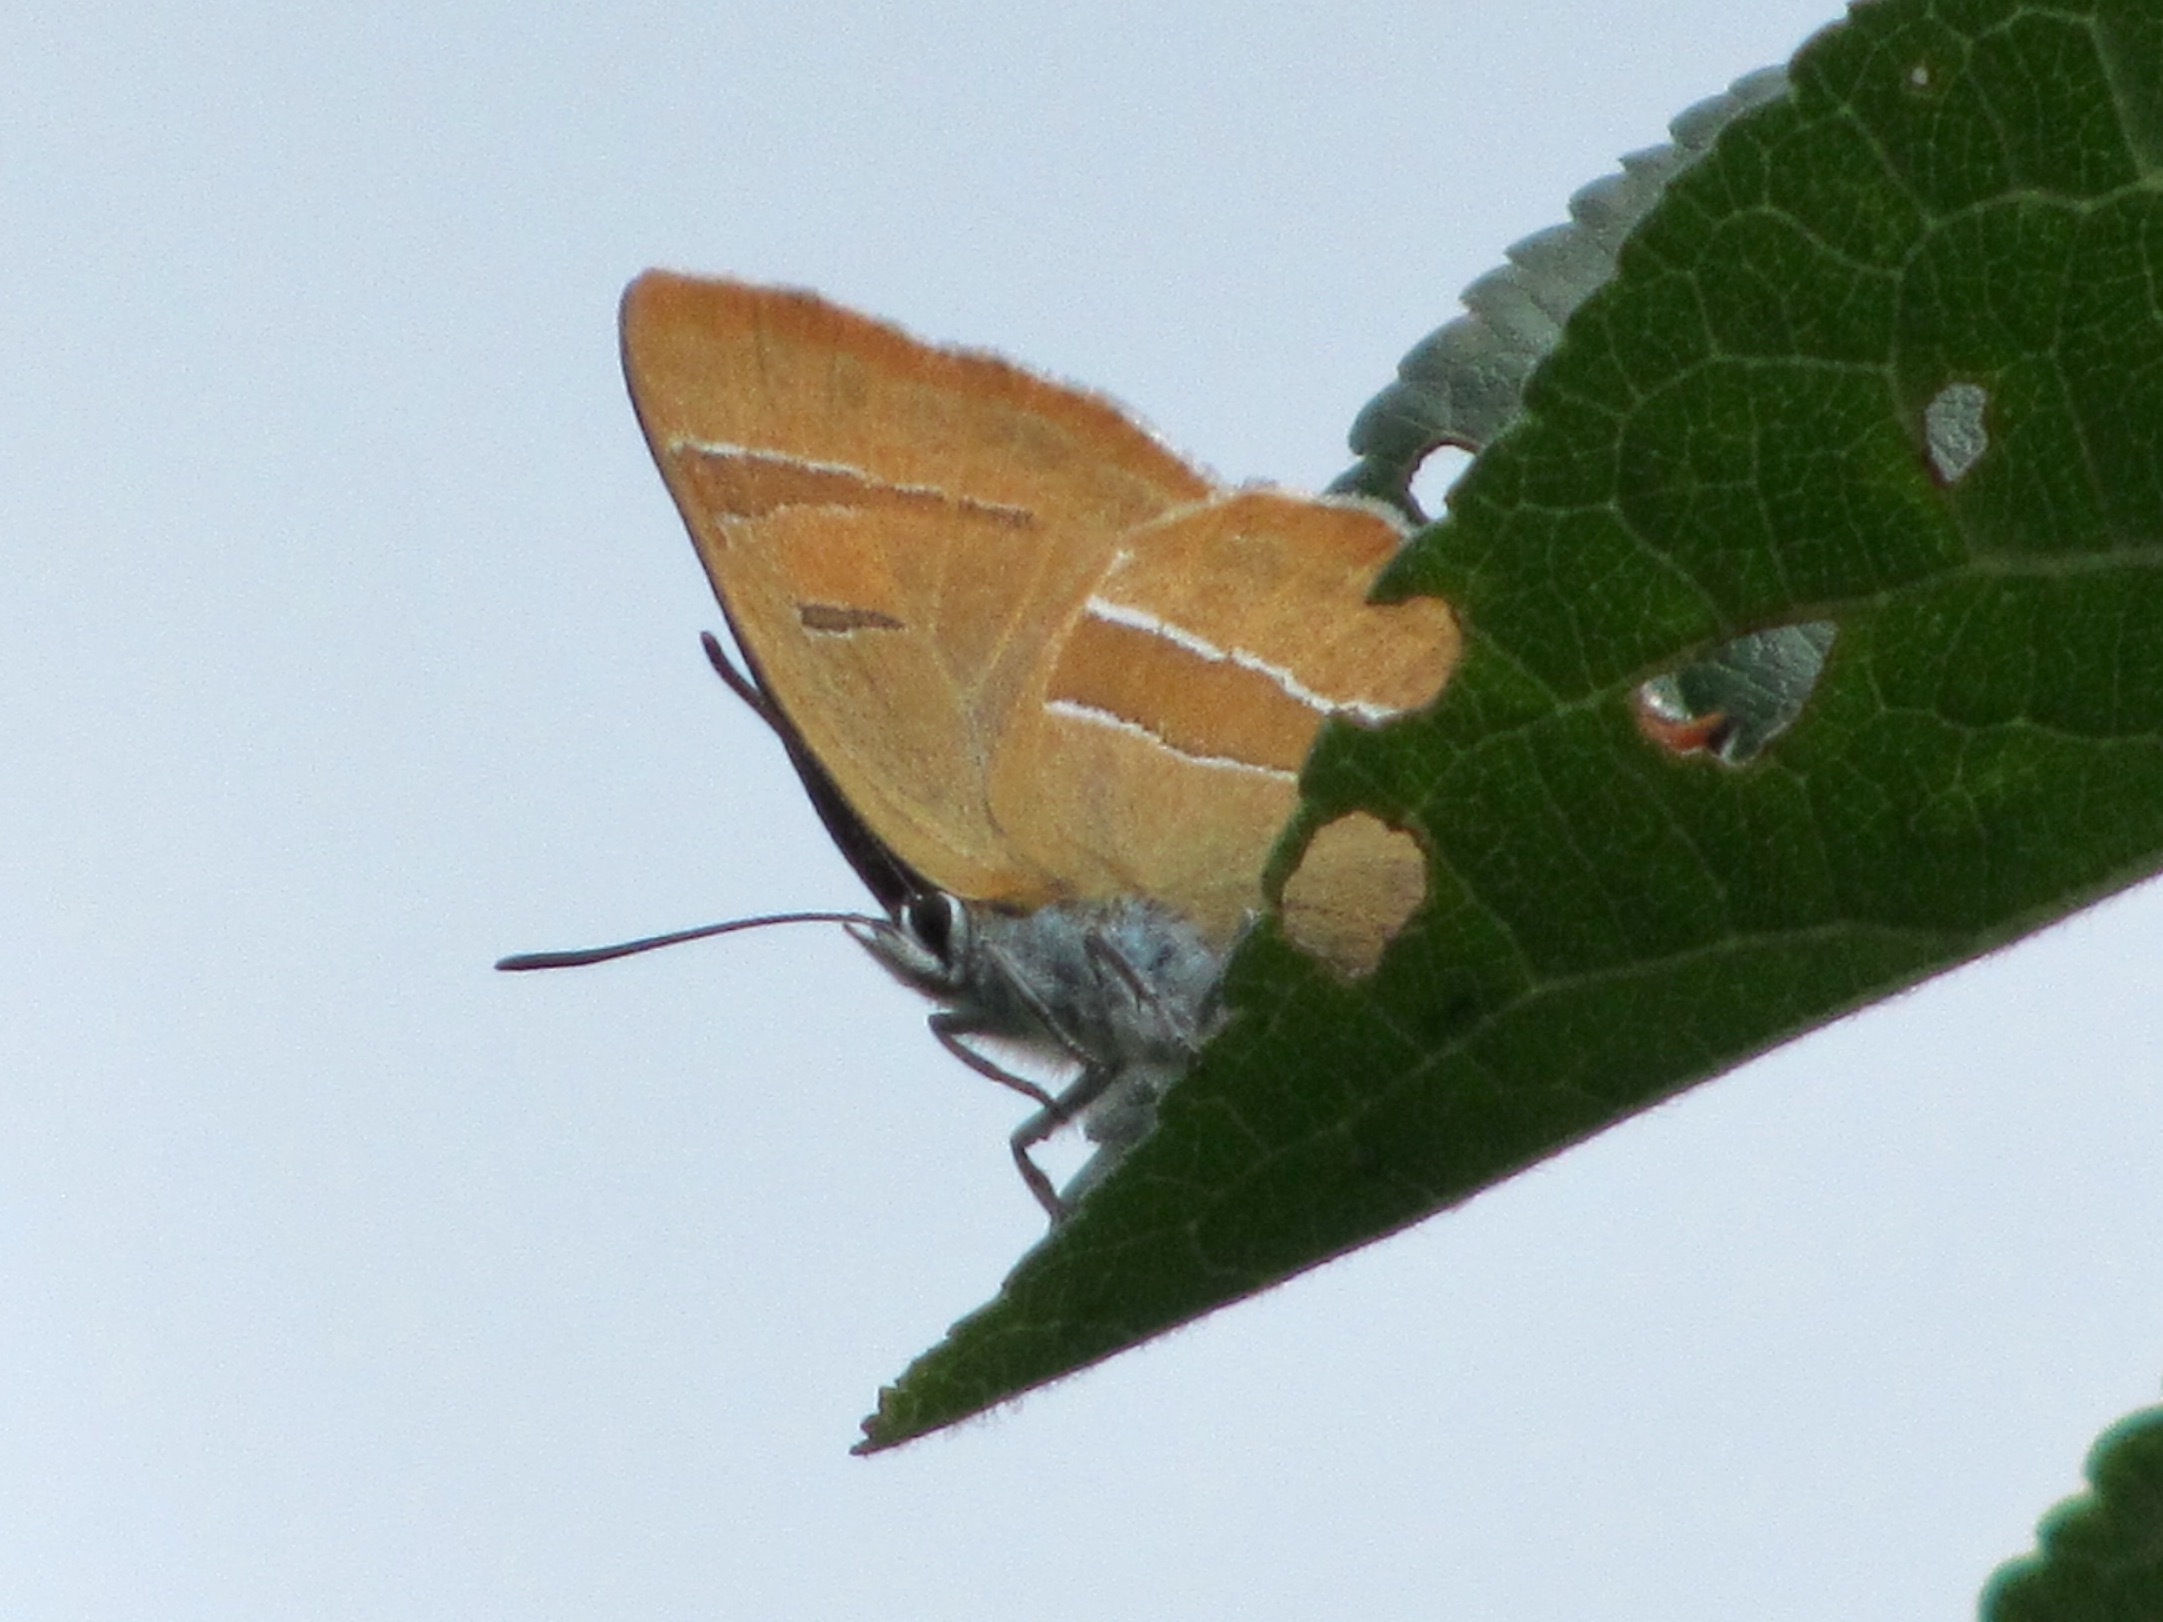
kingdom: Animalia
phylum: Arthropoda
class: Insecta
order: Lepidoptera
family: Lycaenidae
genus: Thecla
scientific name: Thecla betulae
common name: Brown hairstreak
